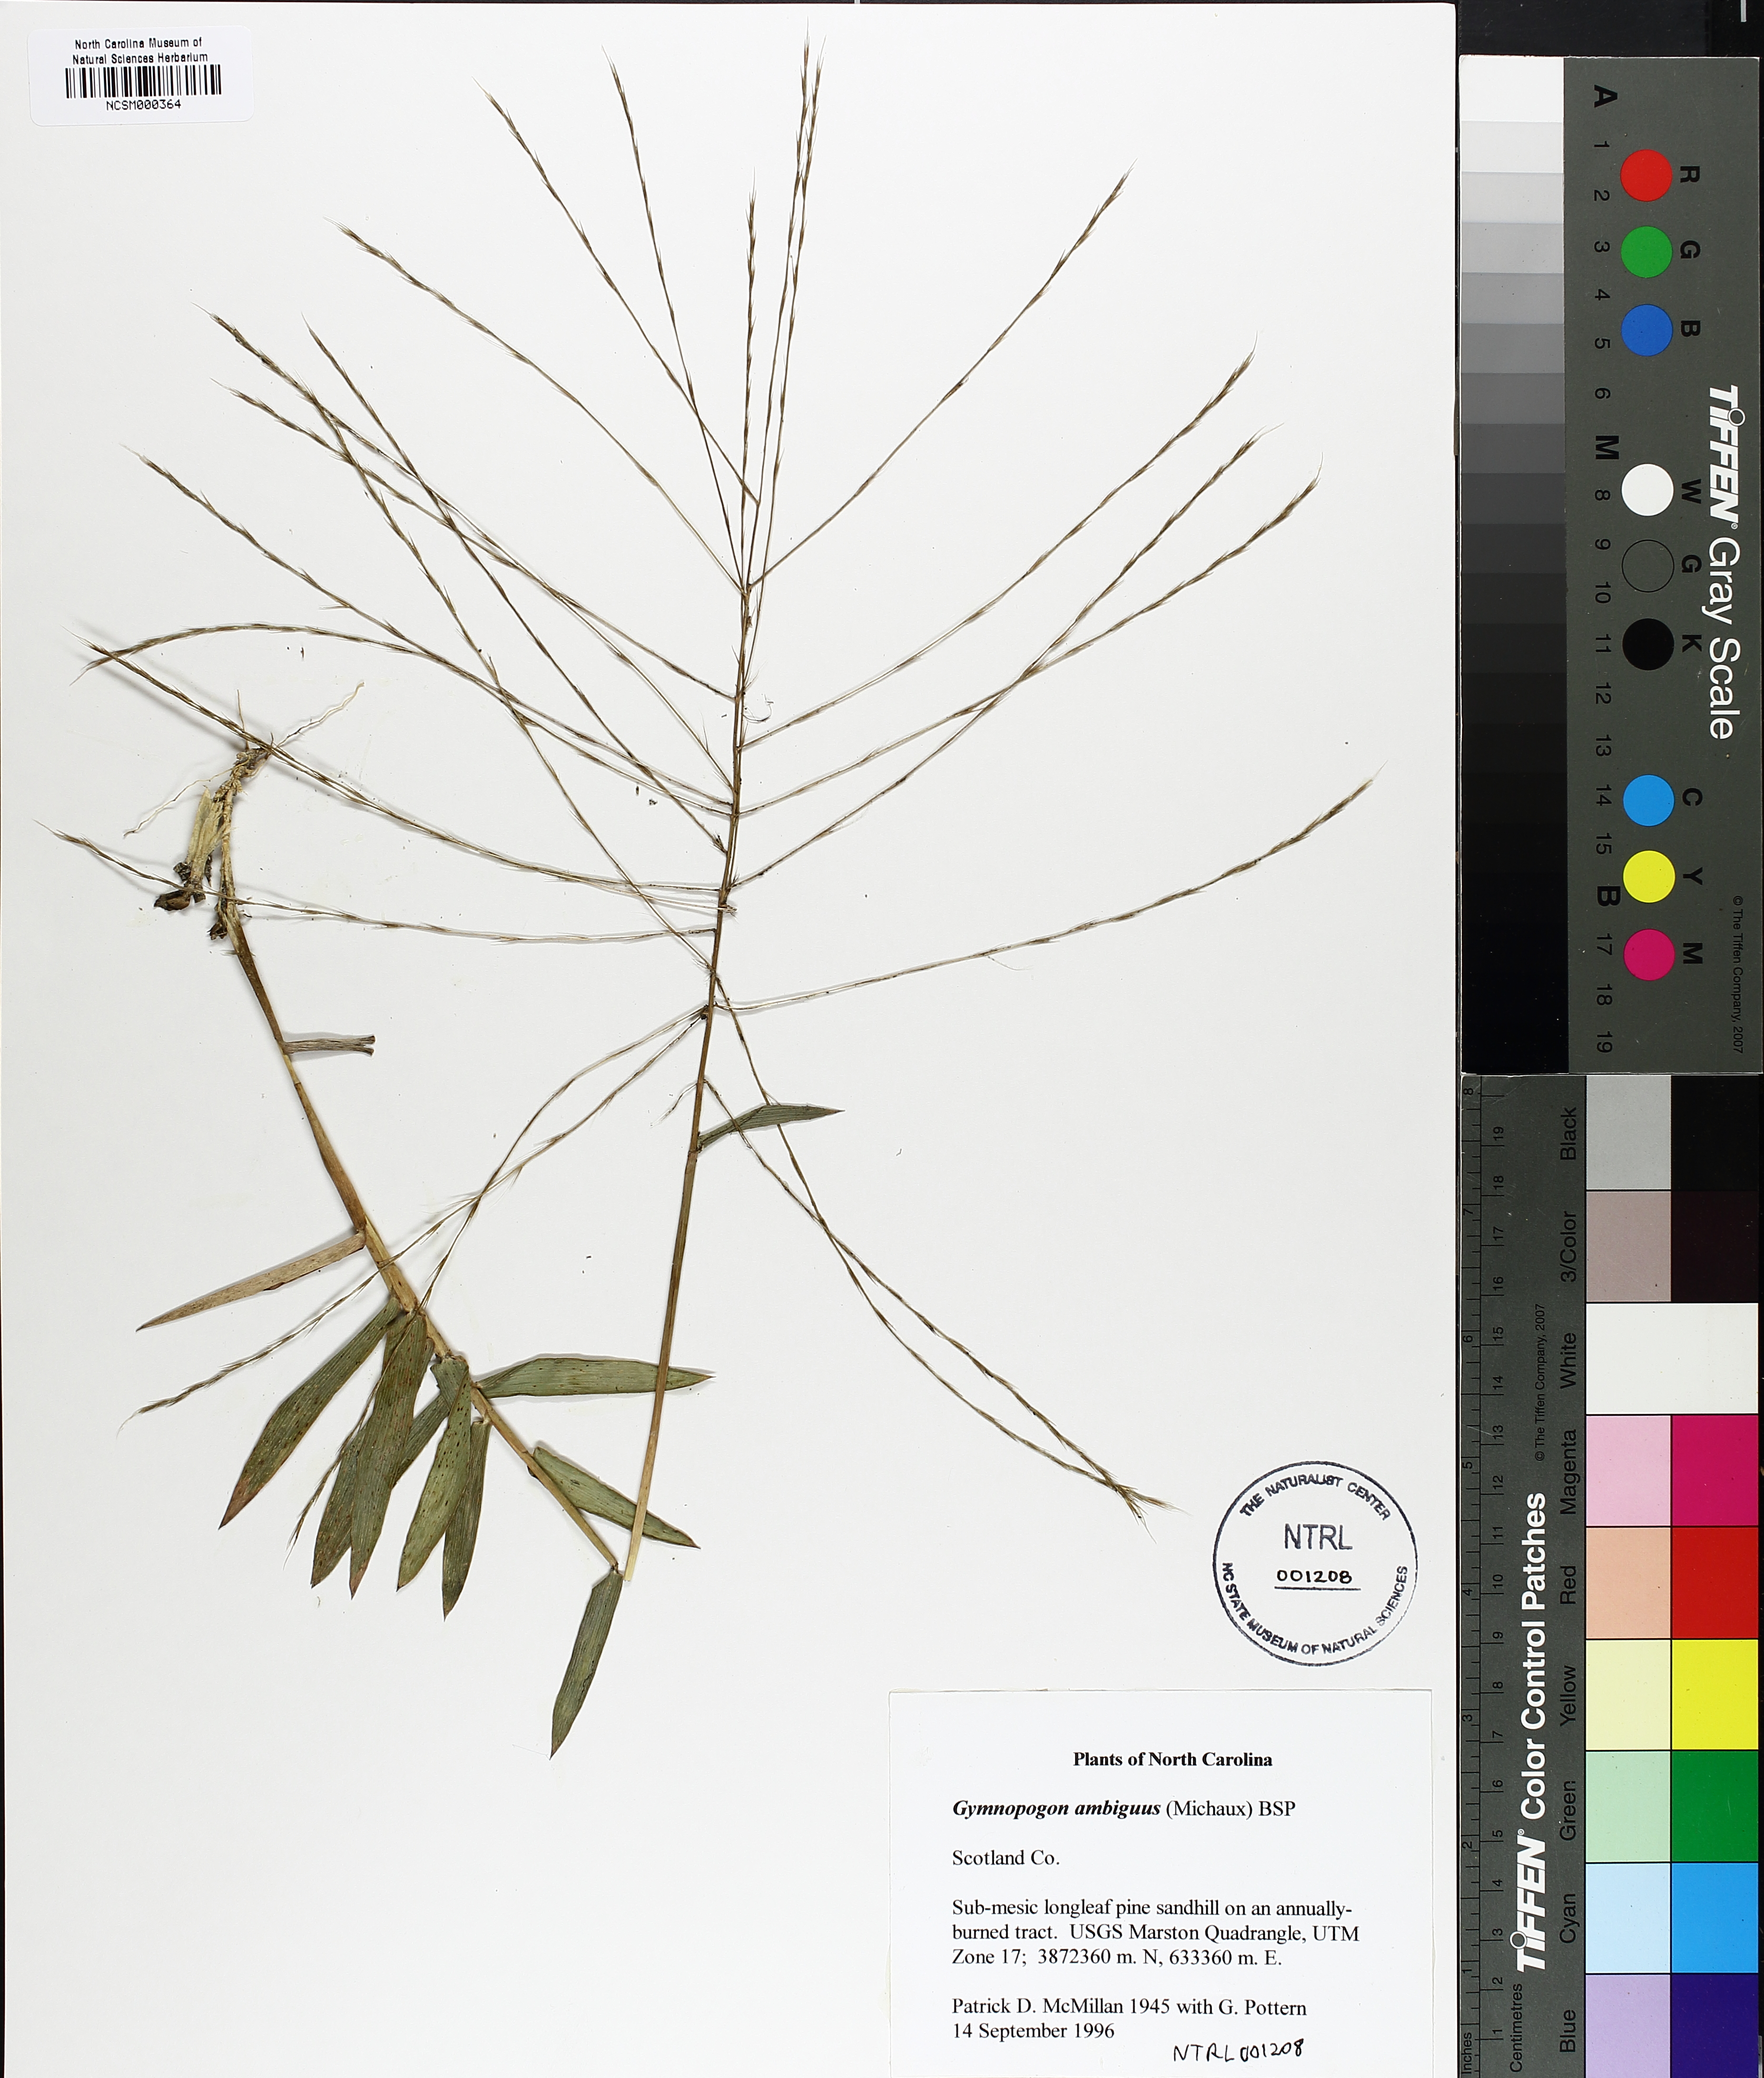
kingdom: Plantae
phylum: Tracheophyta
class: Liliopsida
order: Poales
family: Poaceae
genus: Gymnopogon
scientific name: Gymnopogon ambiguus
